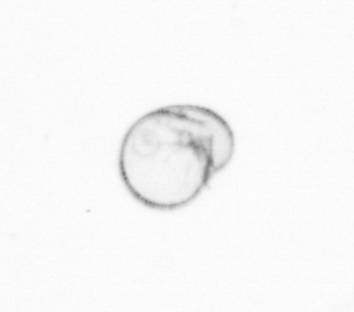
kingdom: Chromista
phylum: Myzozoa
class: Dinophyceae
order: Noctilucales
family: Noctilucaceae
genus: Noctiluca
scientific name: Noctiluca scintillans
